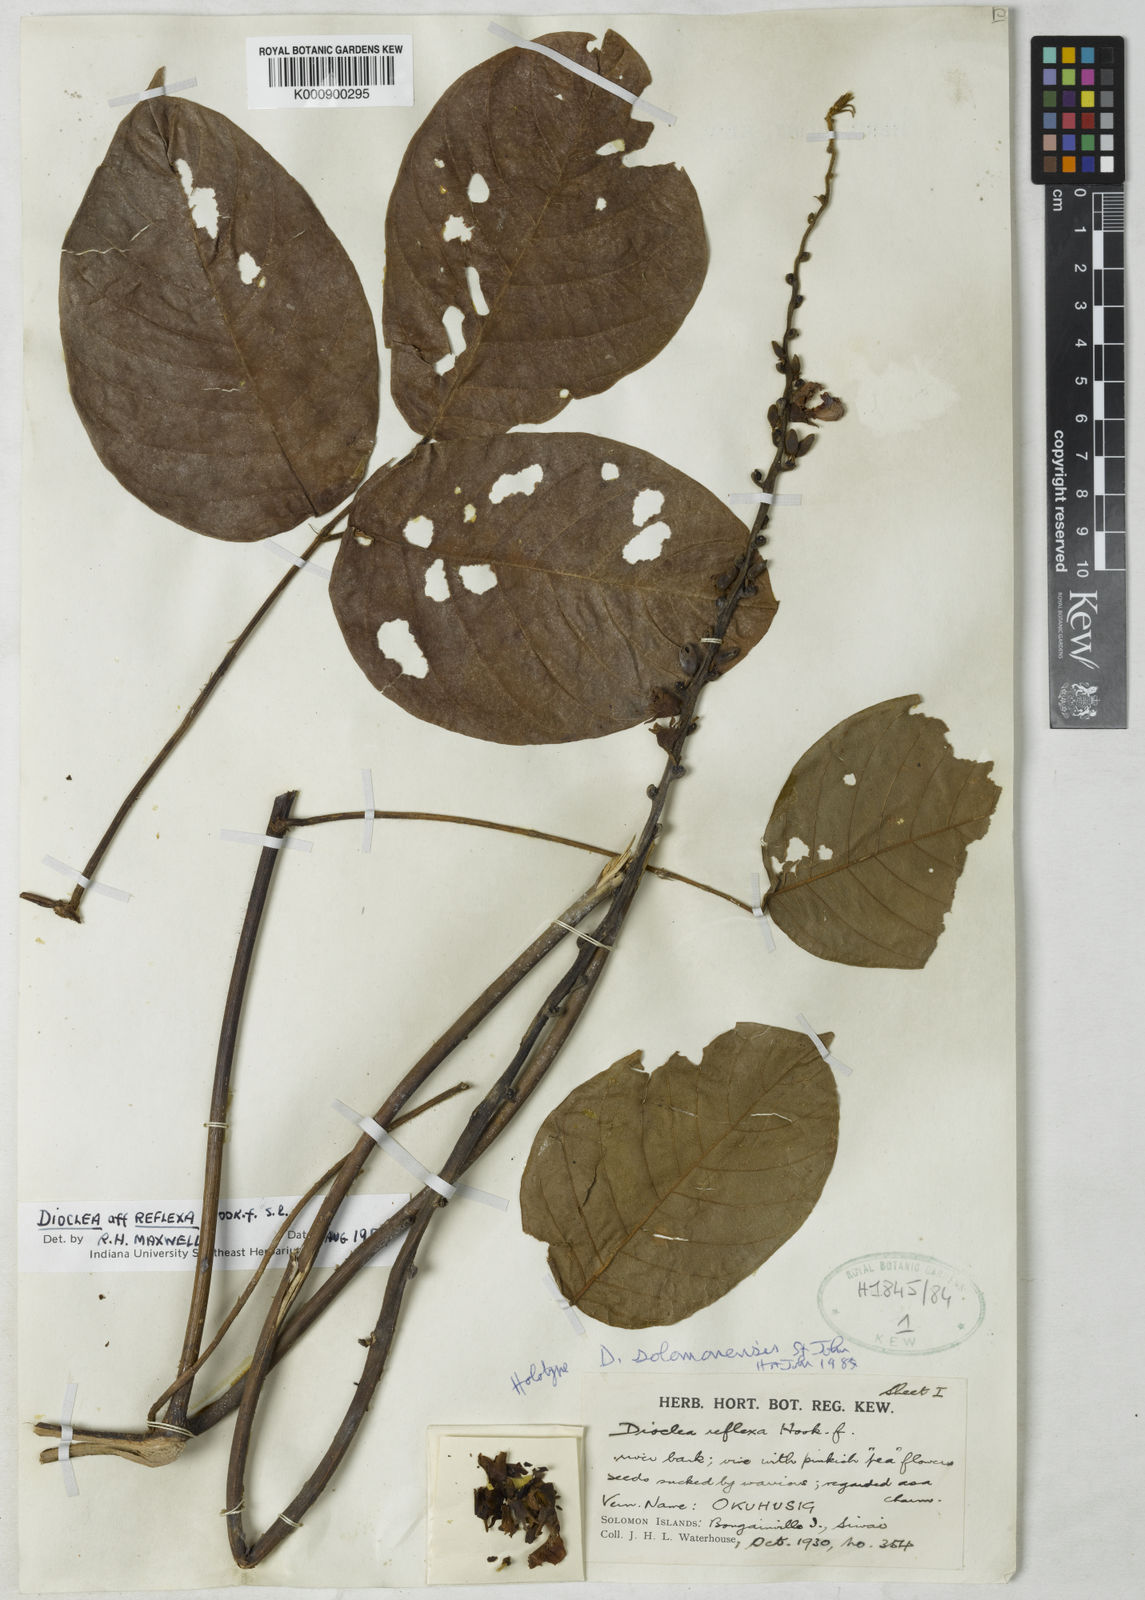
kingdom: Plantae
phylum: Tracheophyta
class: Magnoliopsida
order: Fabales
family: Fabaceae
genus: Dioclea
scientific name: Dioclea
